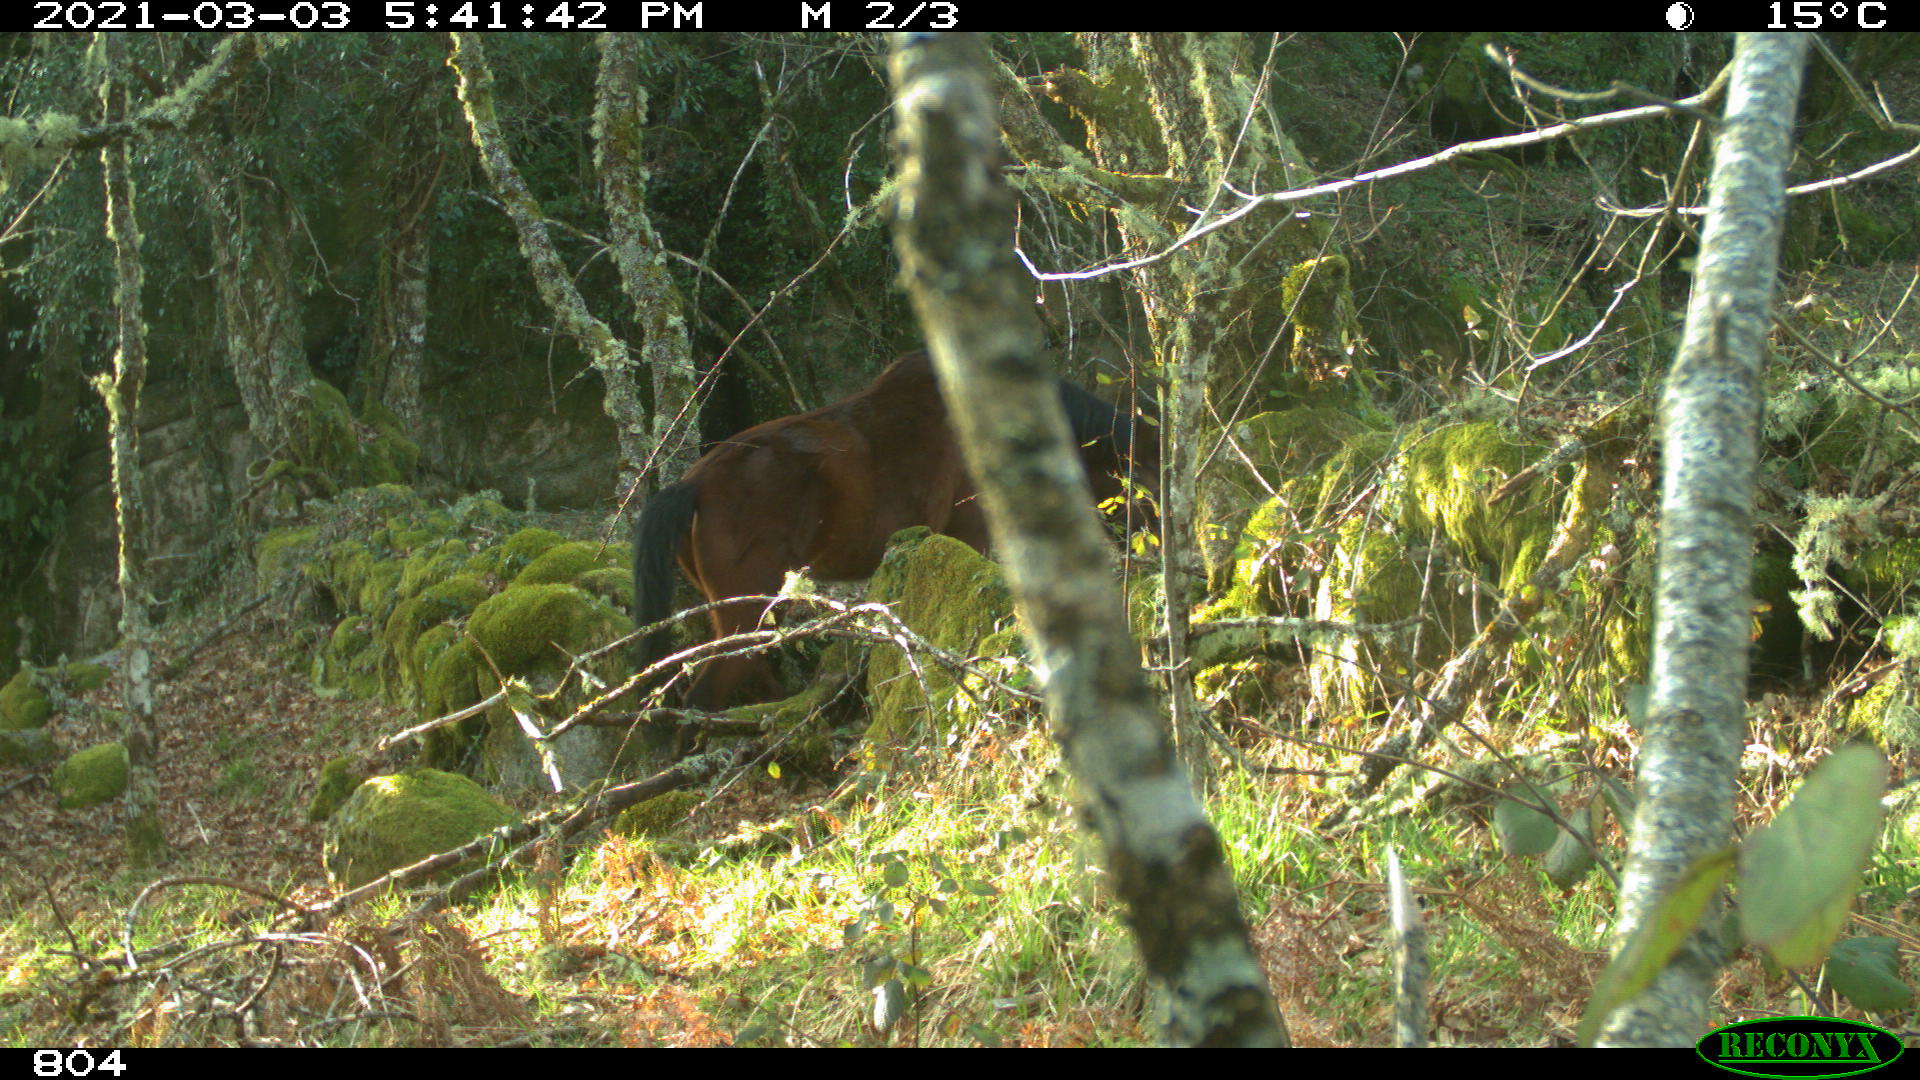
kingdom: Animalia
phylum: Chordata
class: Mammalia
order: Perissodactyla
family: Equidae
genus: Equus
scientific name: Equus caballus
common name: Horse
